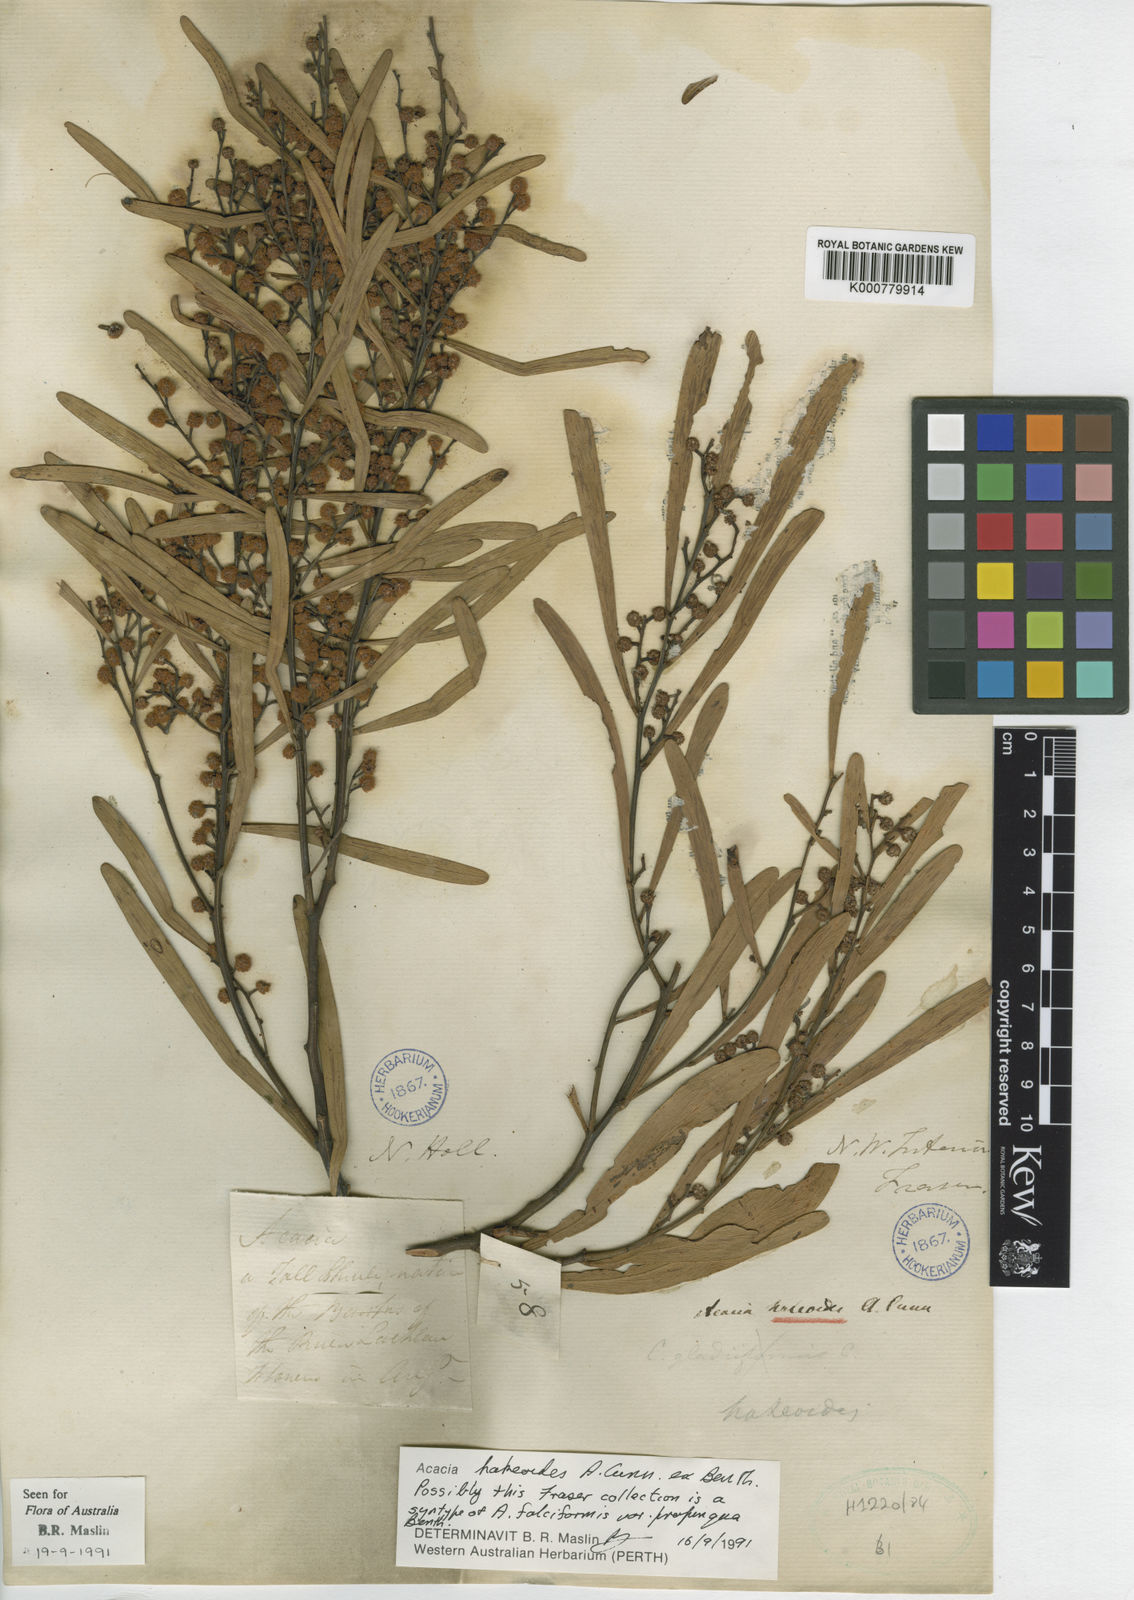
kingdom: Plantae
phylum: Tracheophyta
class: Magnoliopsida
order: Fabales
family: Fabaceae
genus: Acacia
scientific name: Acacia hakeoides
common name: Hakea wattle
